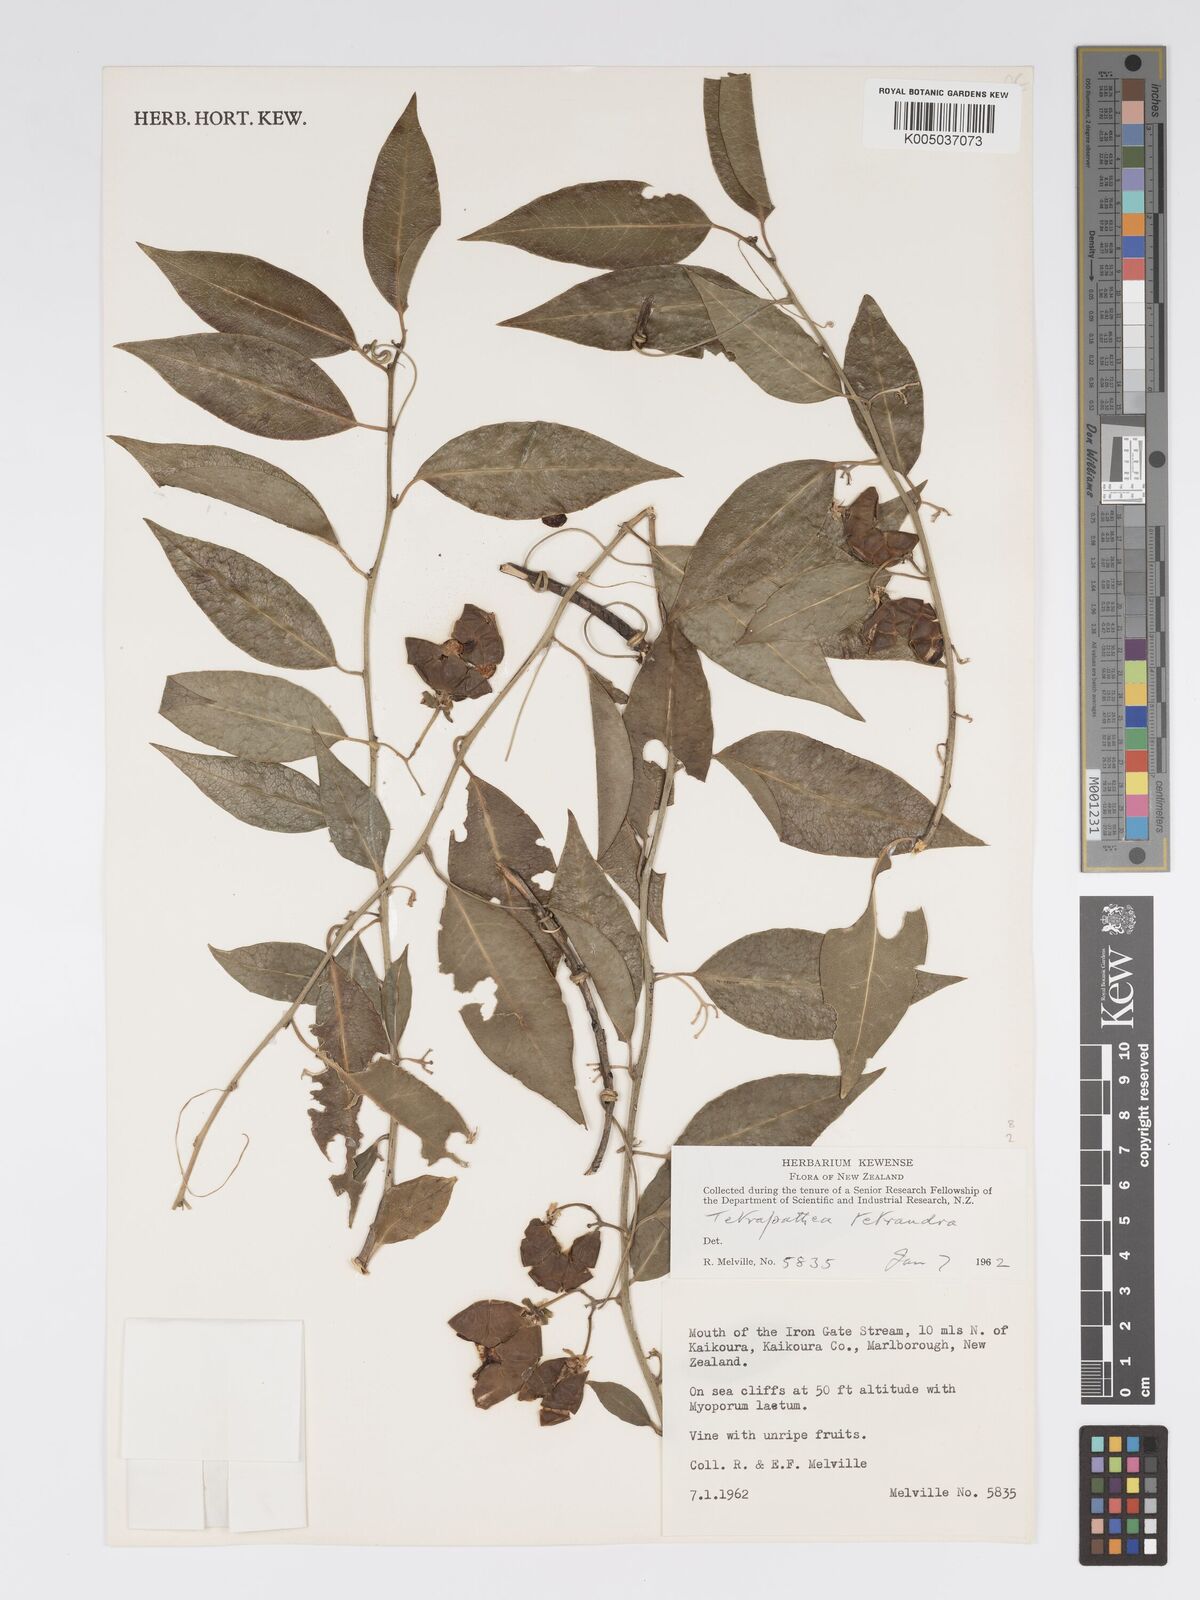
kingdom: Plantae
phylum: Tracheophyta
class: Magnoliopsida
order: Malpighiales
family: Passifloraceae
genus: Passiflora
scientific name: Passiflora tetrandra
